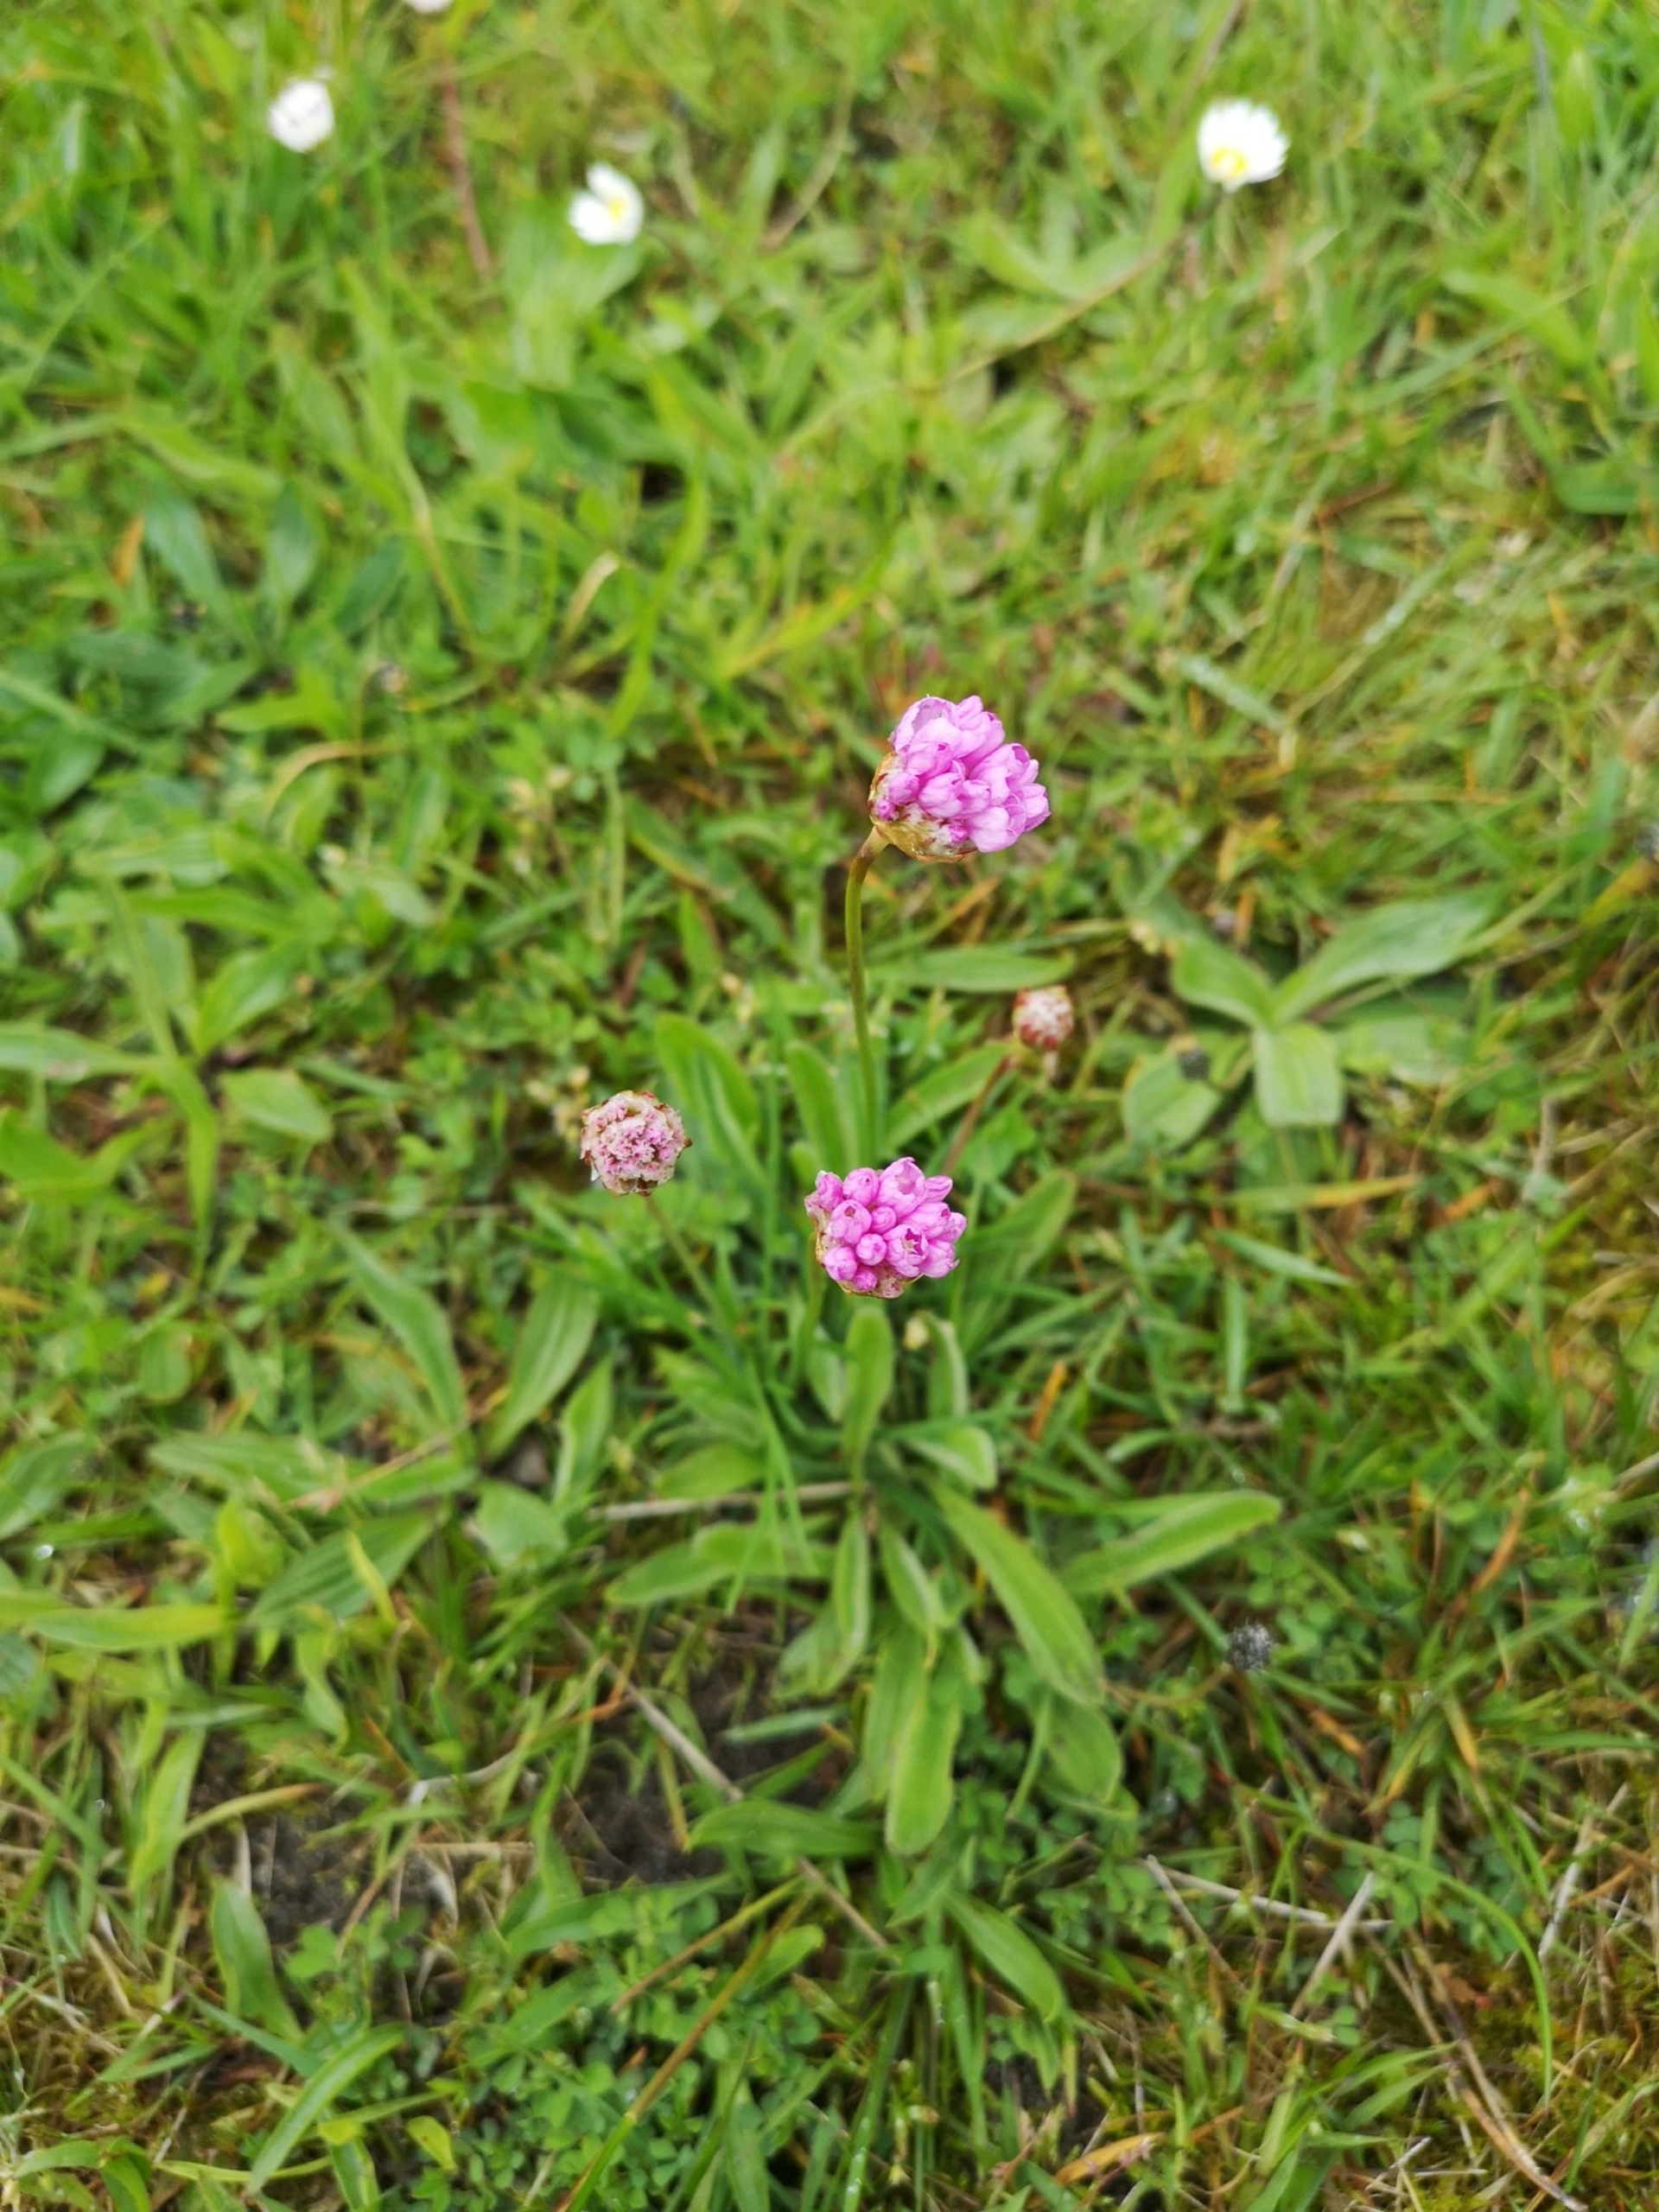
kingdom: Plantae
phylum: Tracheophyta
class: Magnoliopsida
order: Caryophyllales
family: Plumbaginaceae
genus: Armeria
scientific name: Armeria maritima
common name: Engelskgræs
